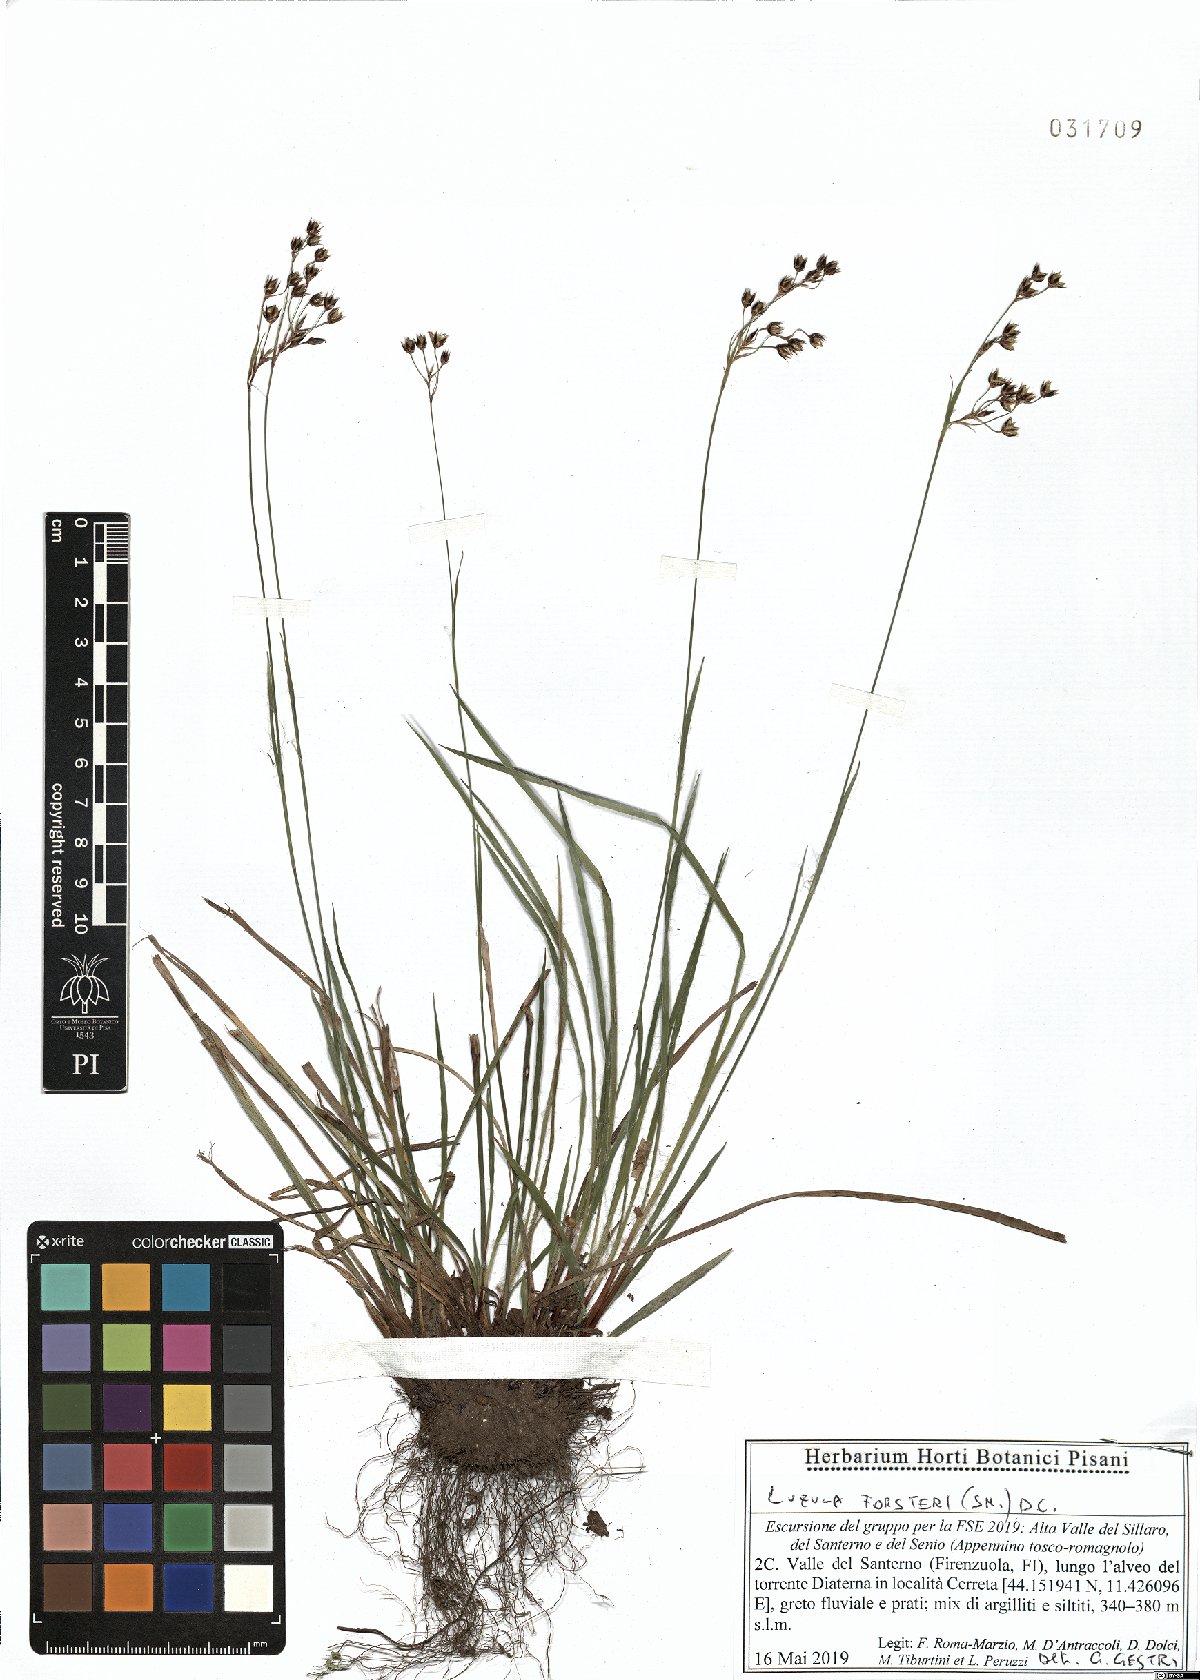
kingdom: Plantae
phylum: Tracheophyta
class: Liliopsida
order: Poales
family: Juncaceae
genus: Luzula
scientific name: Luzula forsteri
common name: Southern wood-rush
